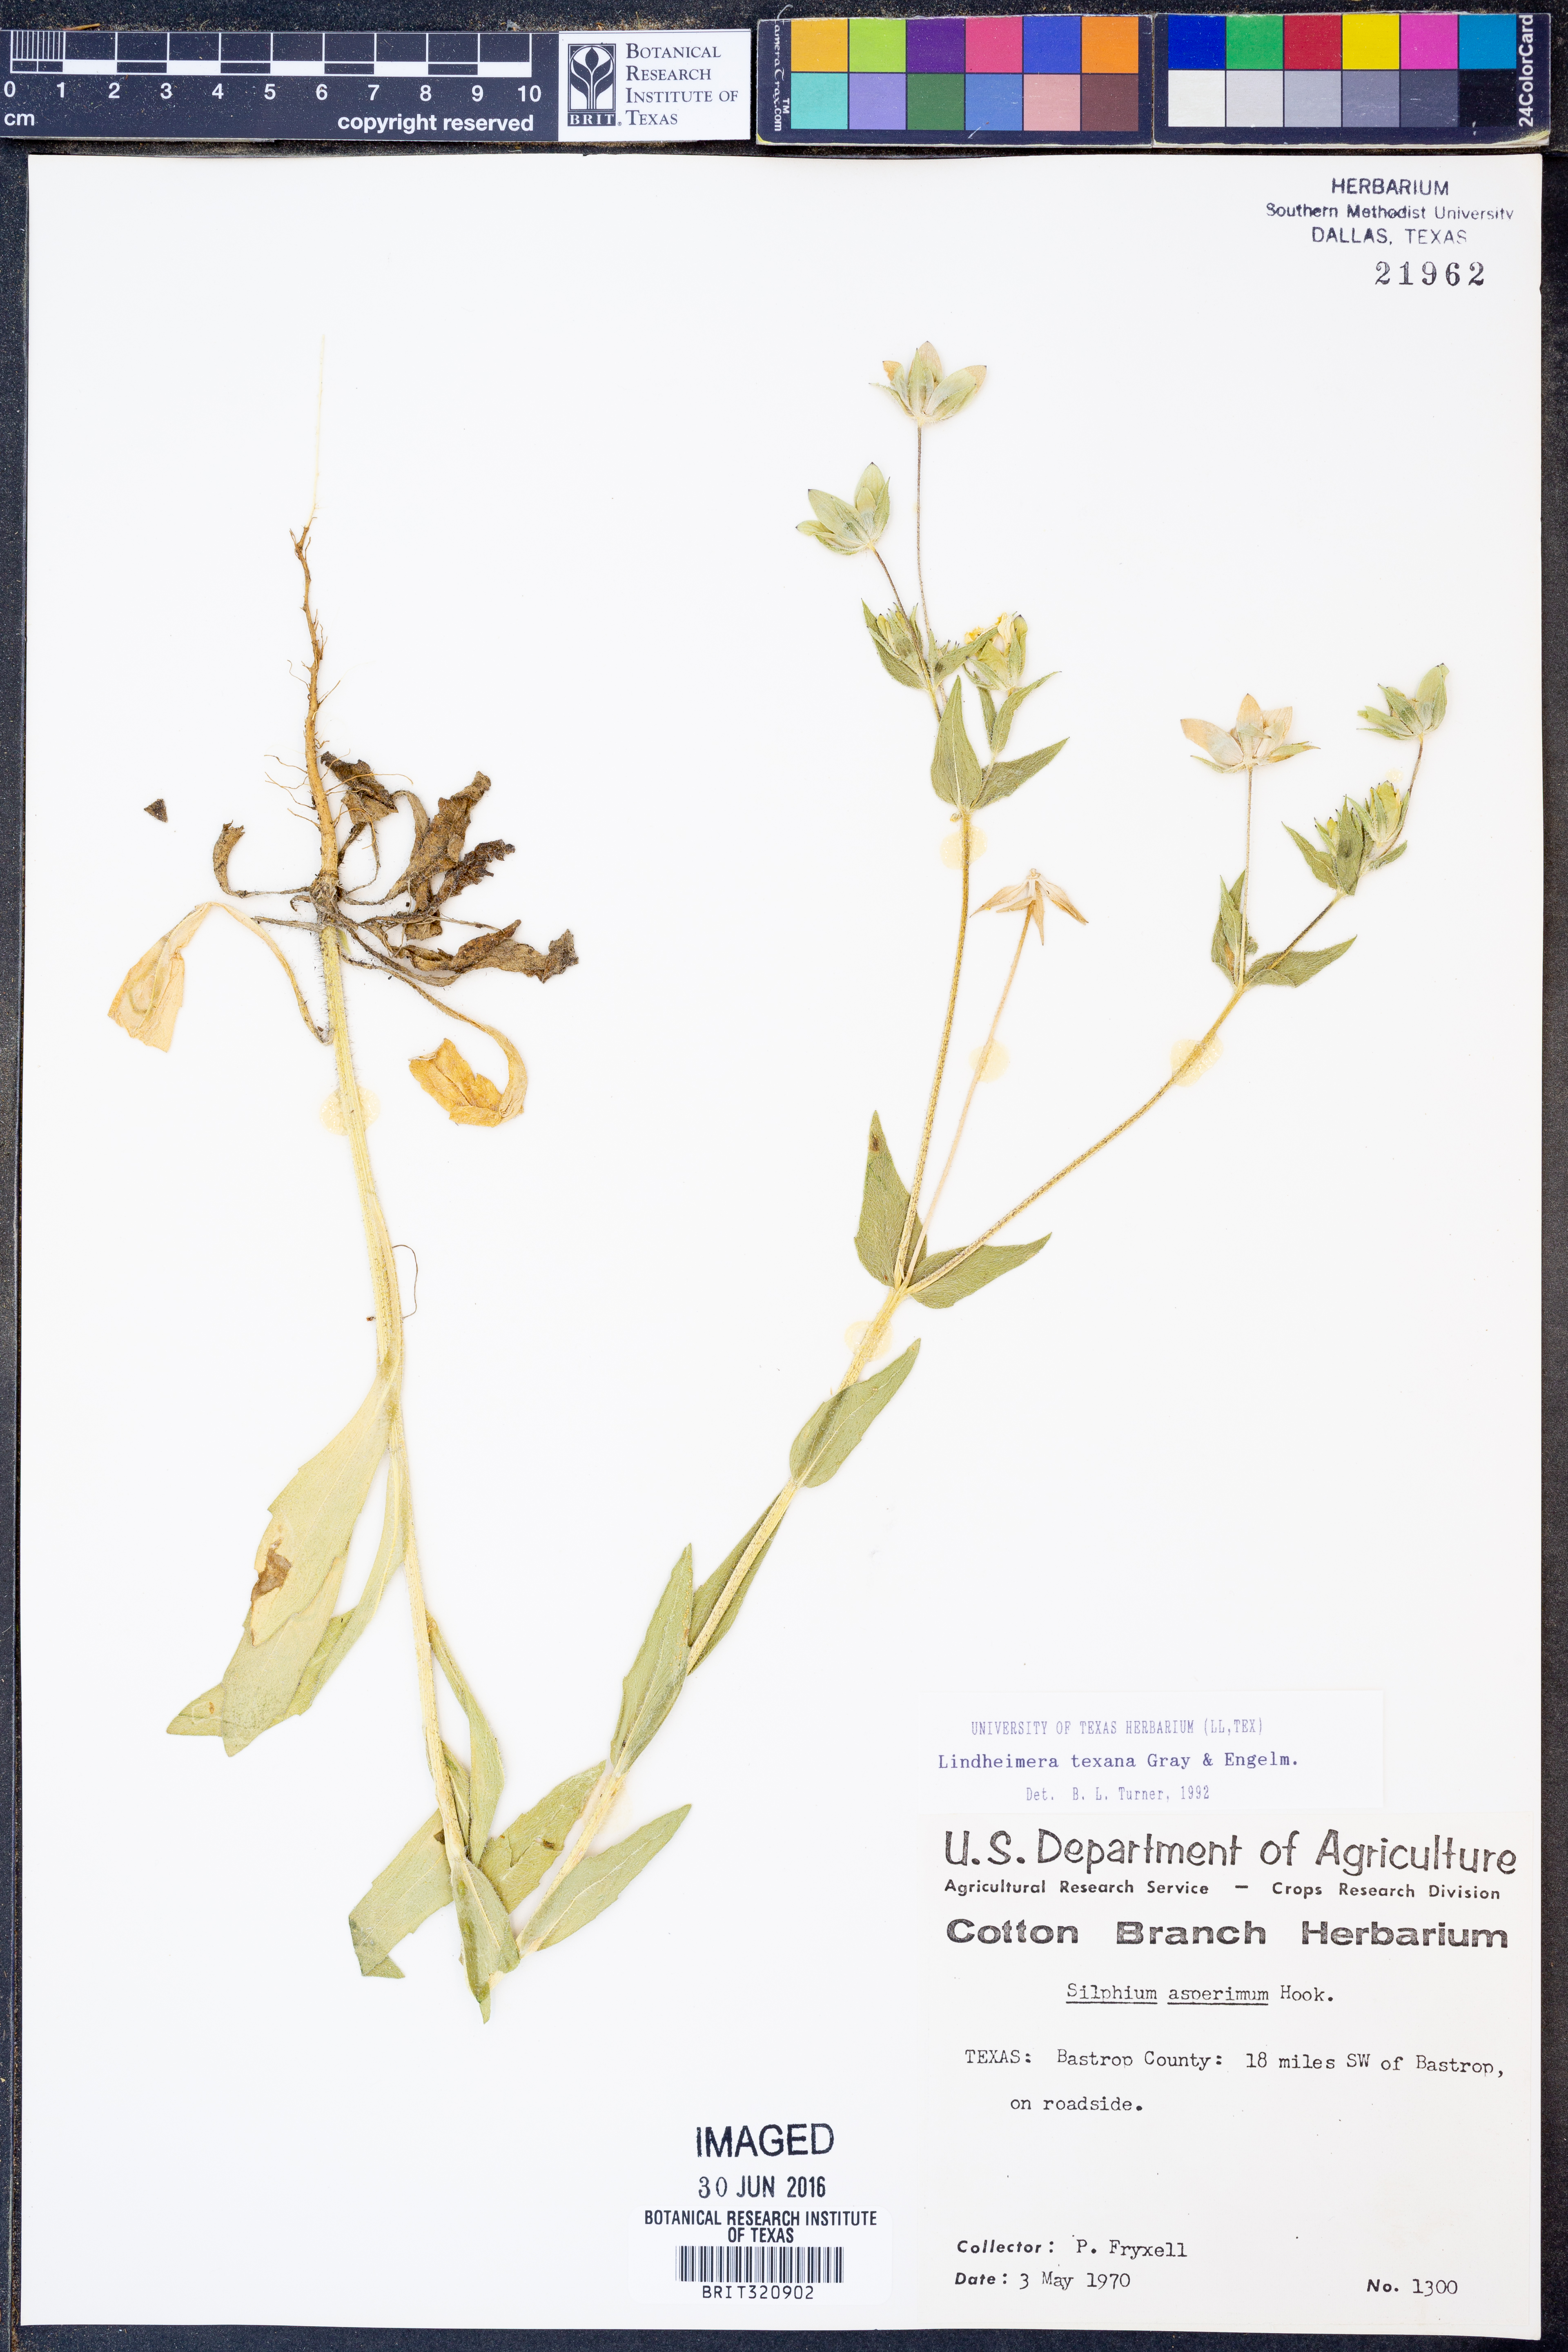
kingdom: Plantae
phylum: Tracheophyta
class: Magnoliopsida
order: Asterales
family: Asteraceae
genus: Lindheimera
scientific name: Lindheimera texana
